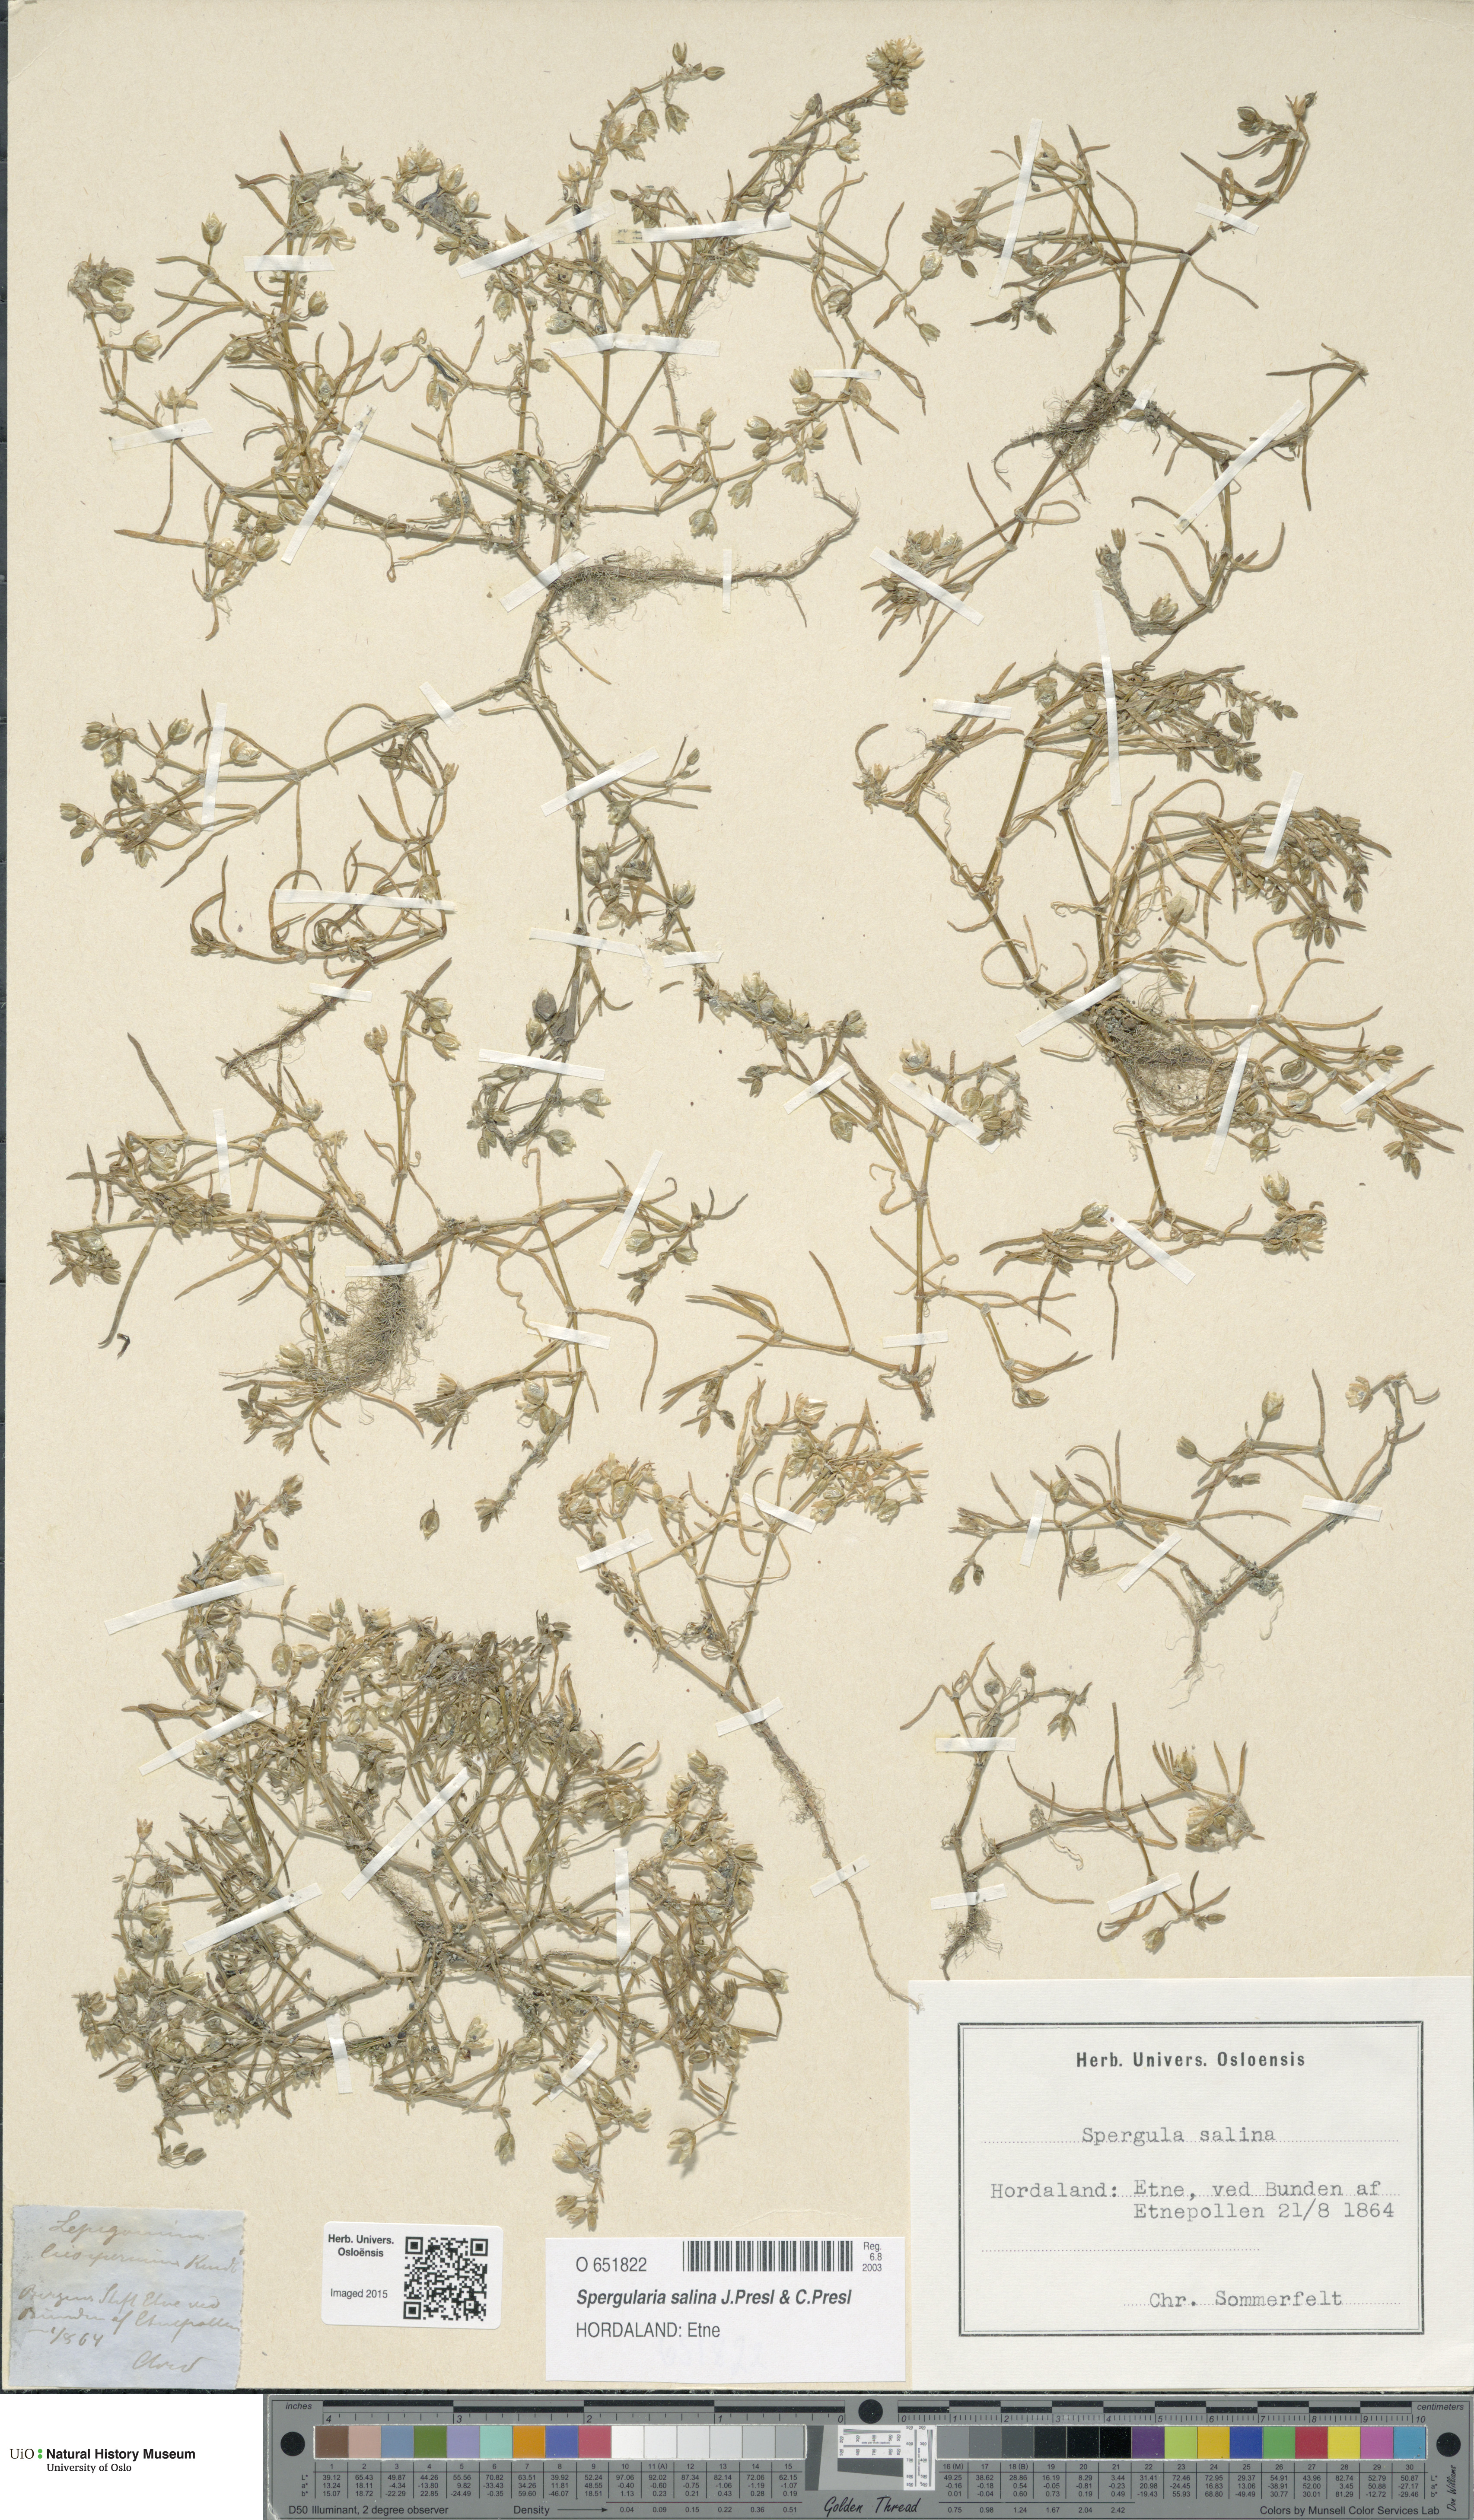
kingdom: Plantae
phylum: Tracheophyta
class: Magnoliopsida
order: Caryophyllales
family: Caryophyllaceae
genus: Spergularia
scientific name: Spergularia marina
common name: Lesser sea-spurrey
